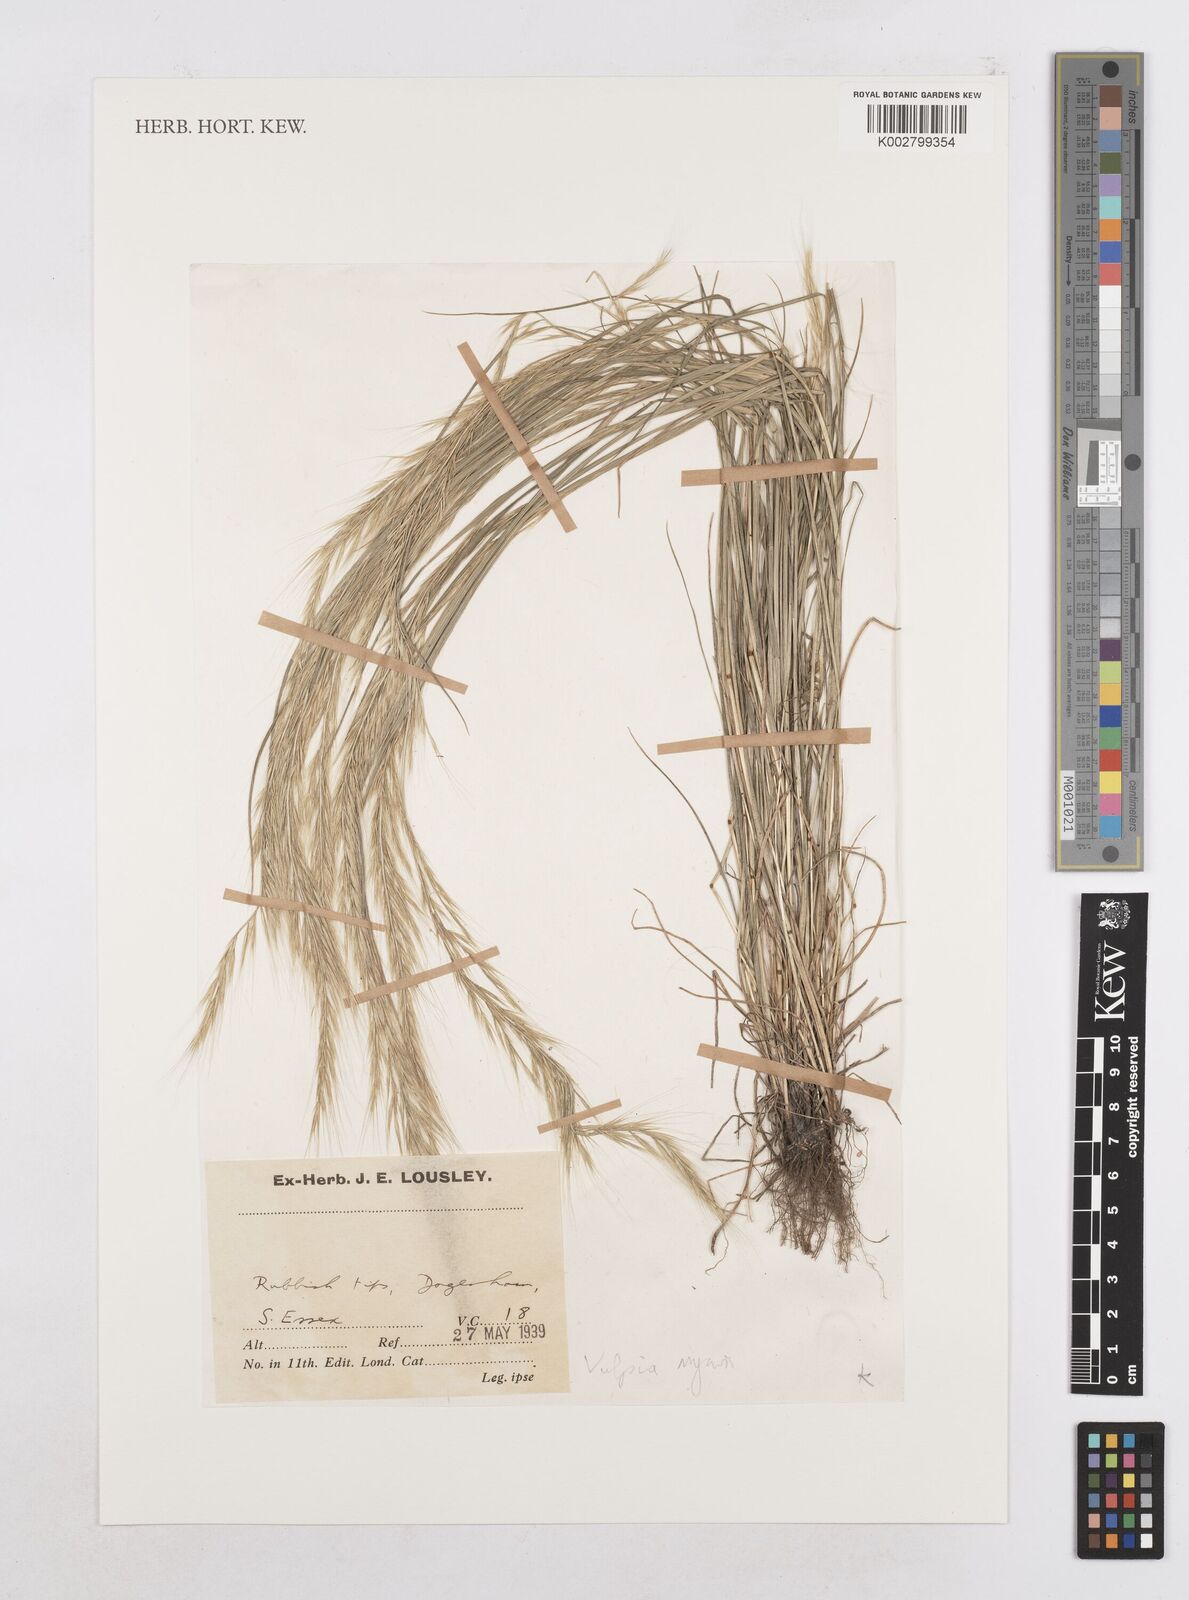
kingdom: Plantae
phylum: Tracheophyta
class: Liliopsida
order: Poales
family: Poaceae
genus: Festuca
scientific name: Festuca myuros
